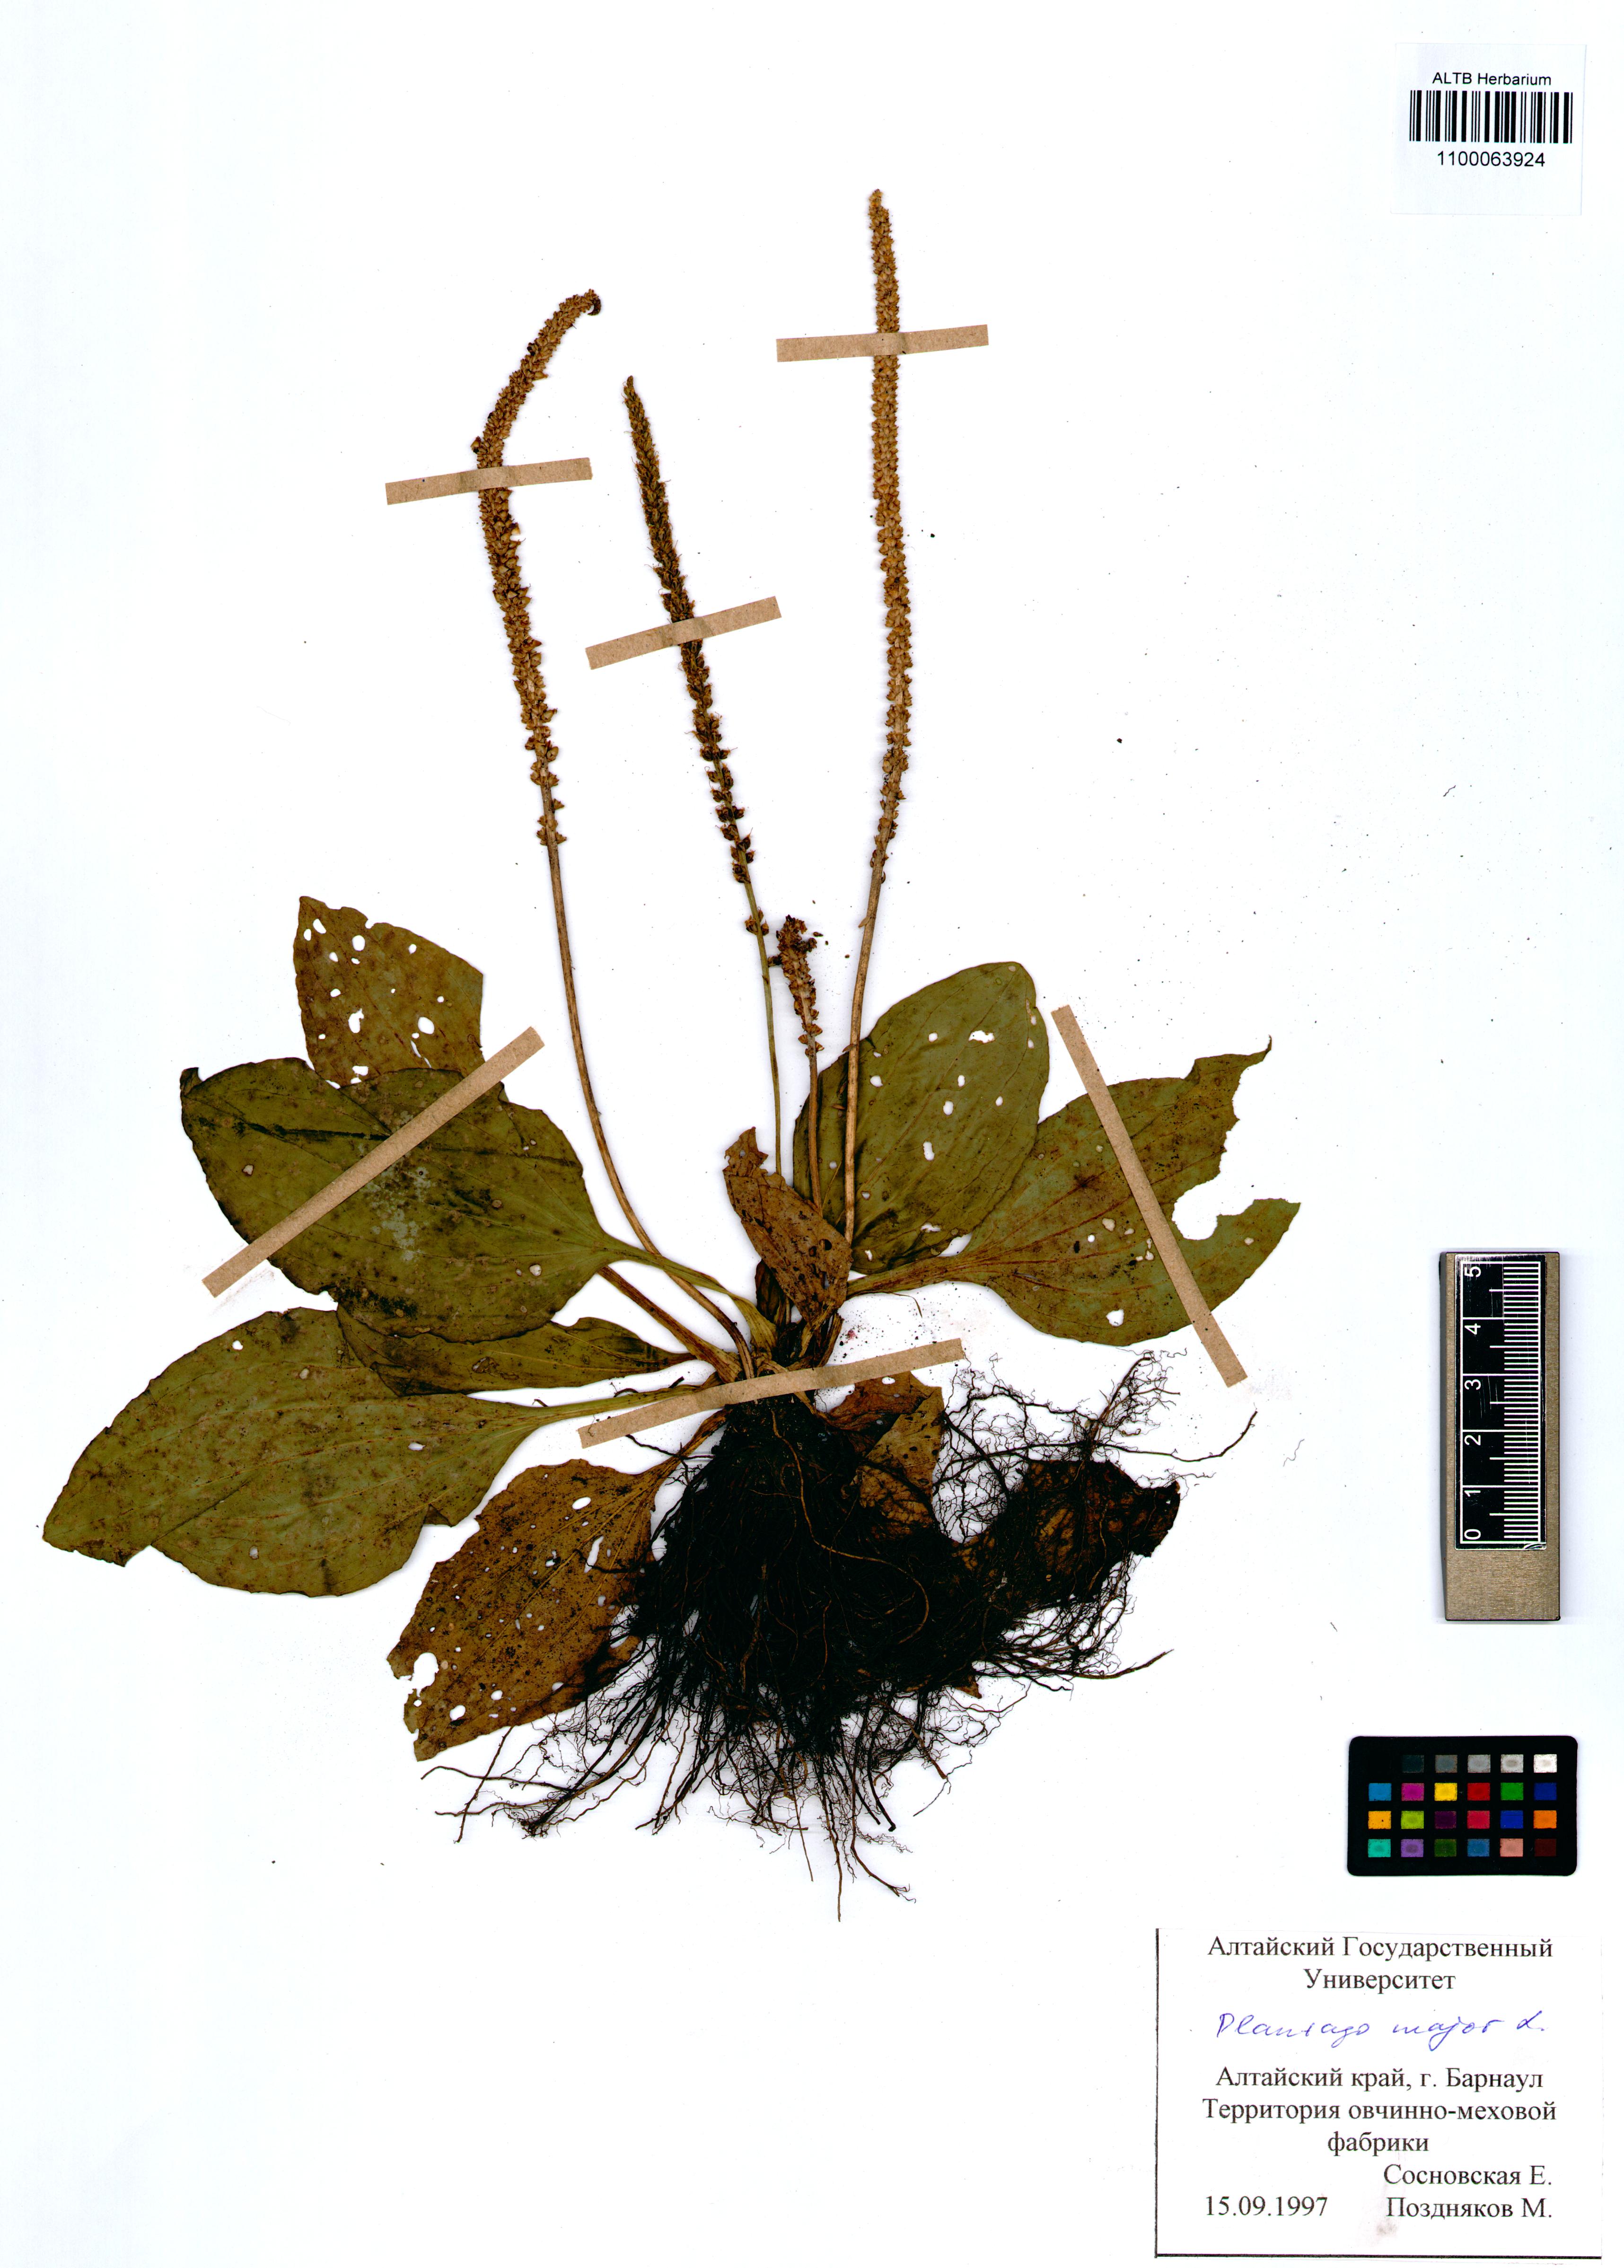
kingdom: Plantae
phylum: Tracheophyta
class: Magnoliopsida
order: Lamiales
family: Plantaginaceae
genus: Plantago
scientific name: Plantago major
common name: Common plantain
